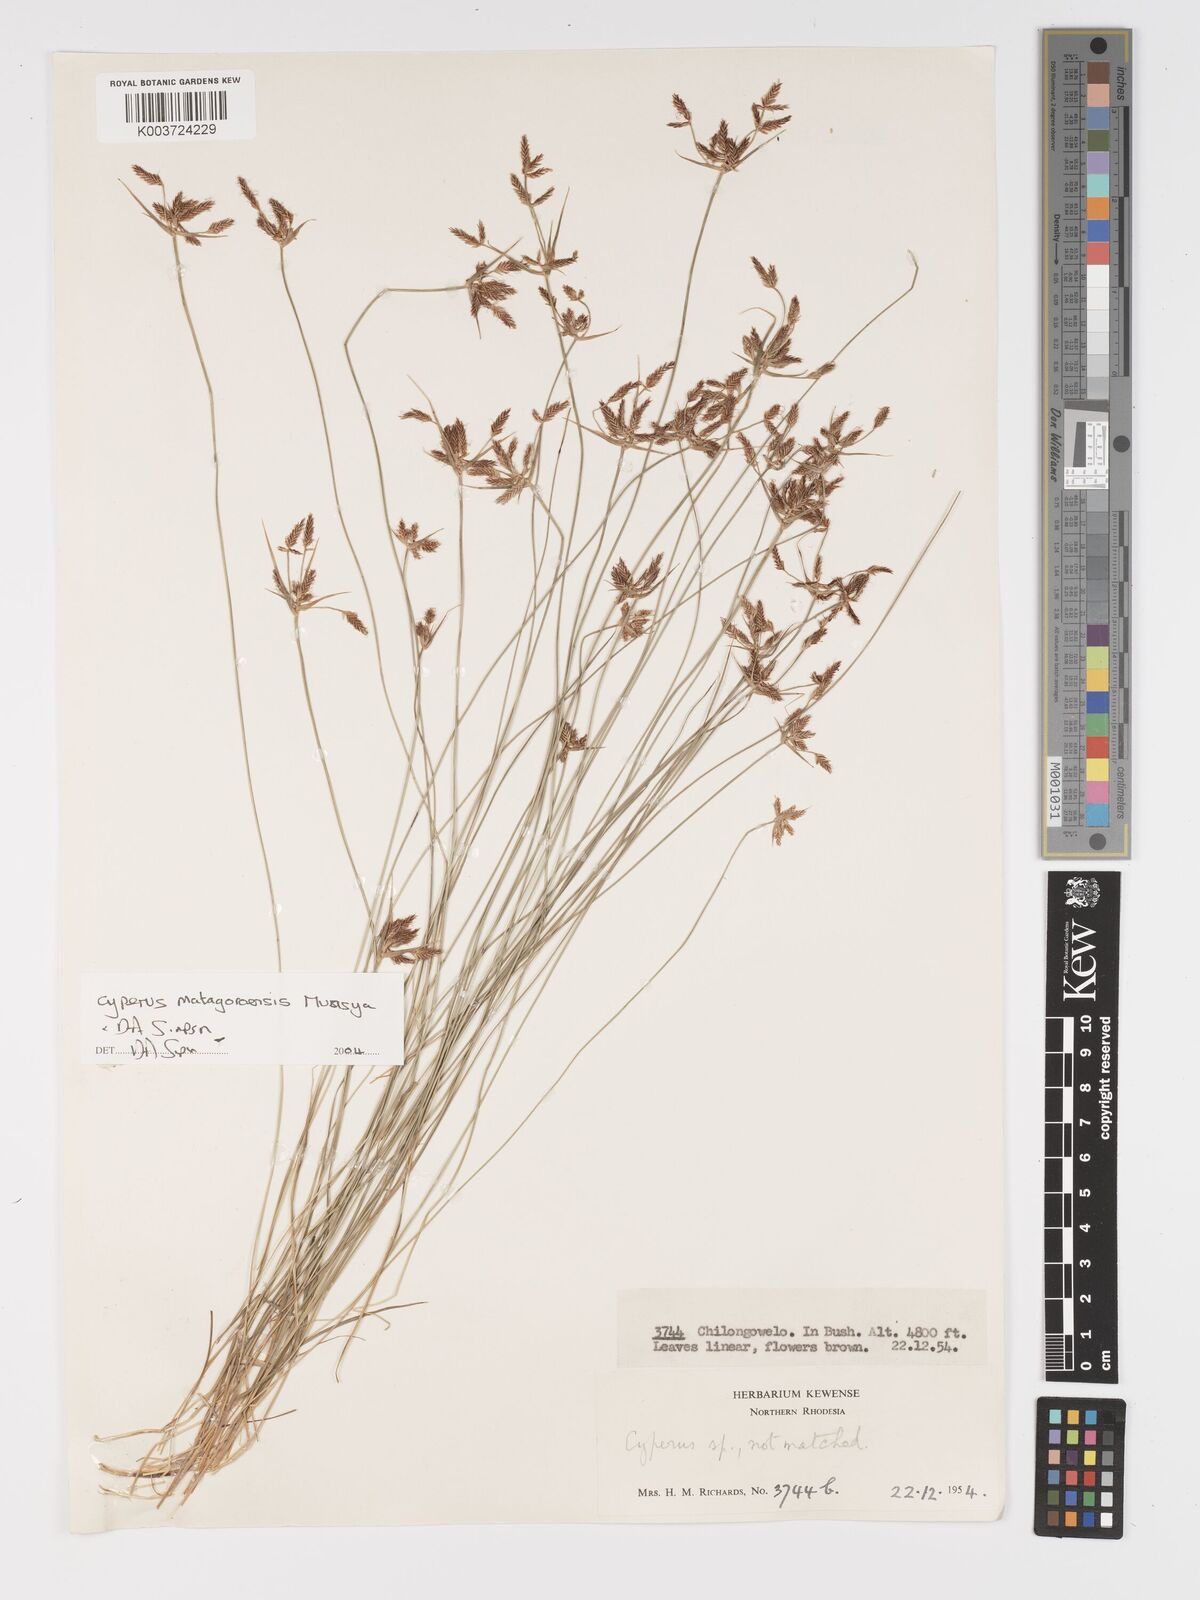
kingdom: Plantae
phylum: Tracheophyta
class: Liliopsida
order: Poales
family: Cyperaceae
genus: Cyperus
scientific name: Cyperus matagoroensis
